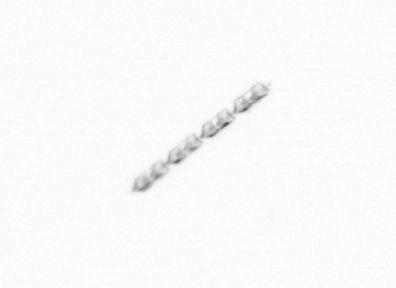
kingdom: Chromista
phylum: Ochrophyta
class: Bacillariophyceae
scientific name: Bacillariophyceae
